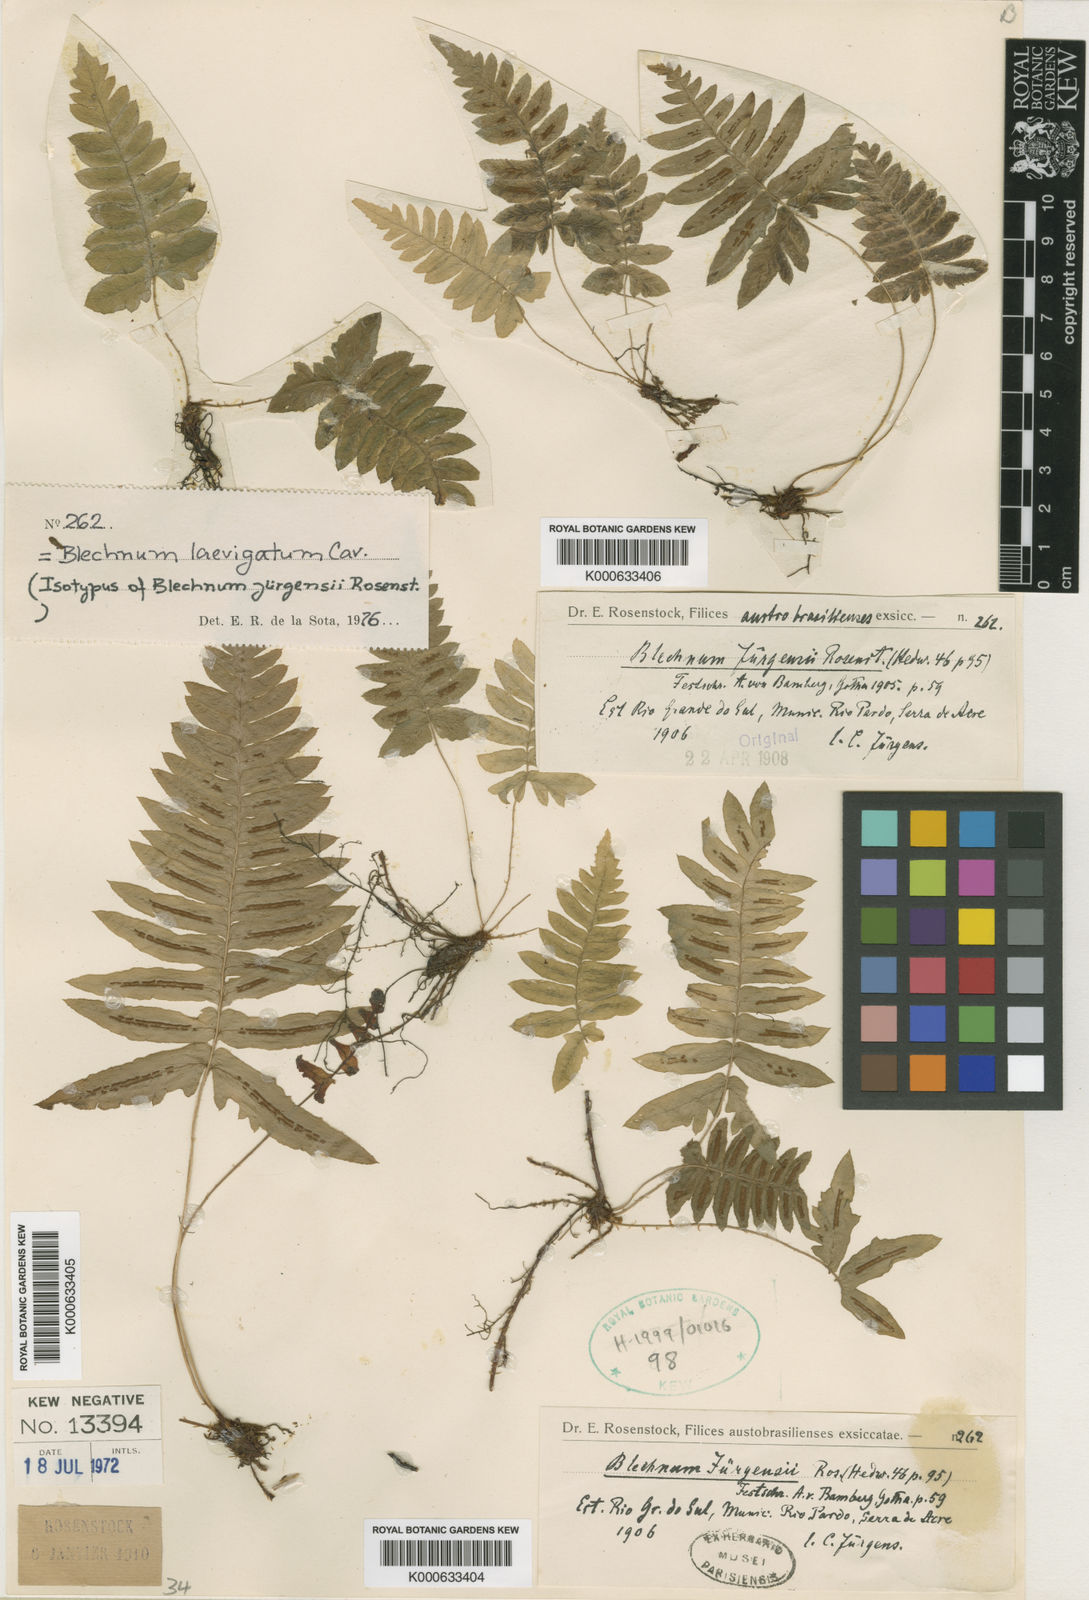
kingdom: Plantae
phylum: Tracheophyta
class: Polypodiopsida
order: Polypodiales
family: Blechnaceae
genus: Blechnum
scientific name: Blechnum occidentale
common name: Hammock fern
